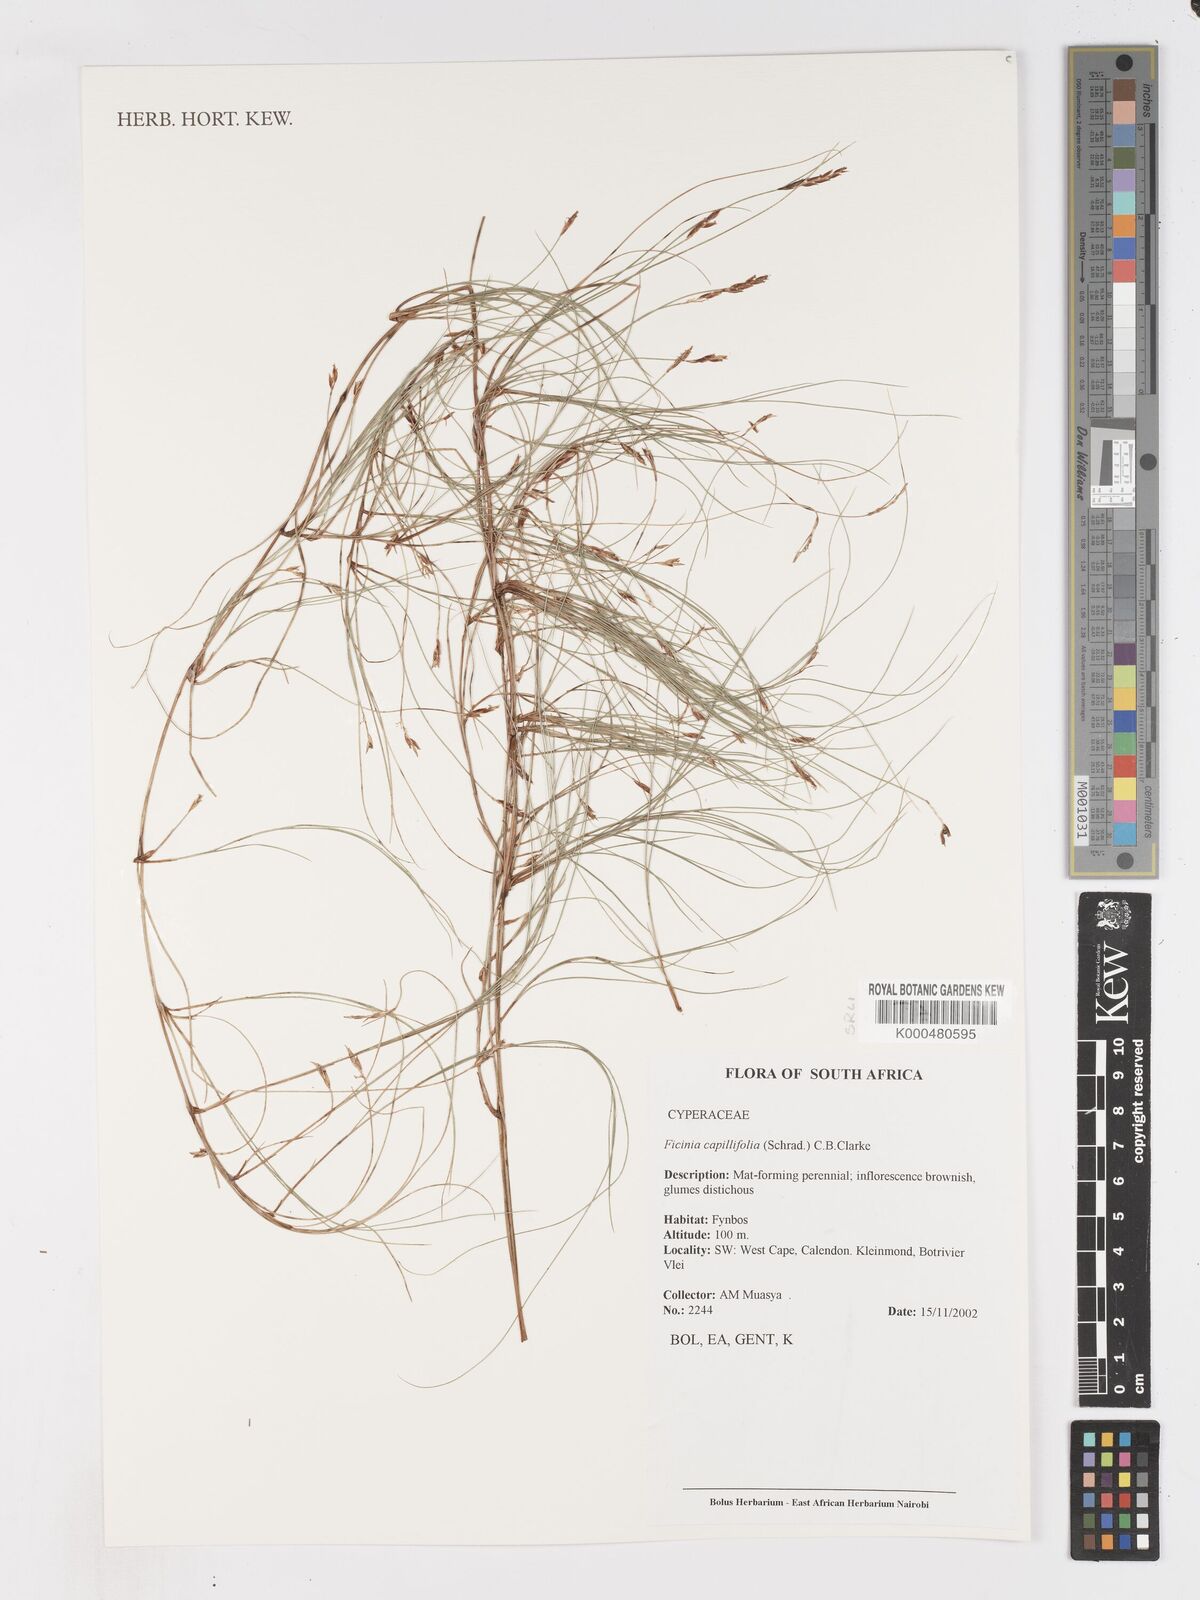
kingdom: Plantae
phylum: Tracheophyta
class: Liliopsida
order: Poales
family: Cyperaceae
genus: Ficinia
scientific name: Ficinia capillifolia
